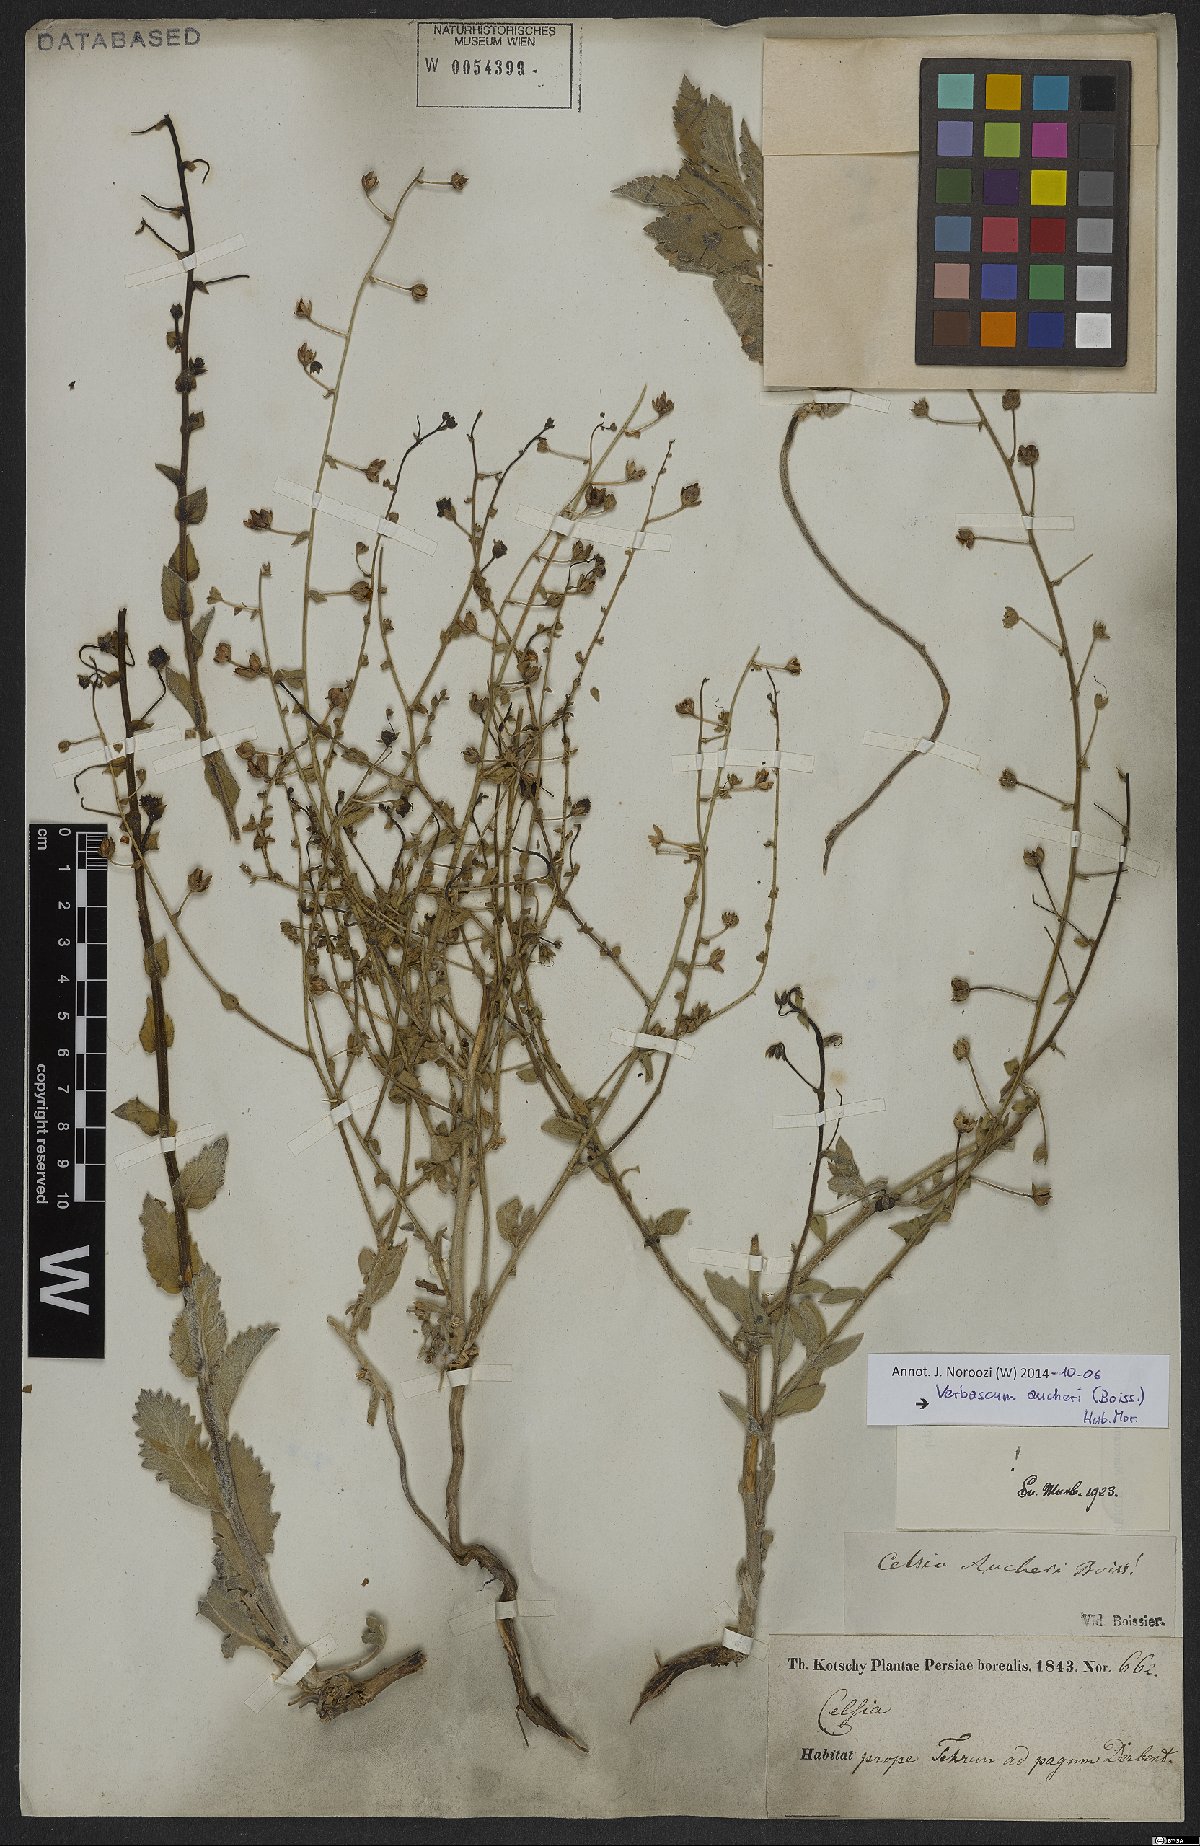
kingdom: Plantae
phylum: Tracheophyta
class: Magnoliopsida
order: Lamiales
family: Scrophulariaceae
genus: Verbascum
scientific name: Verbascum aucheri
